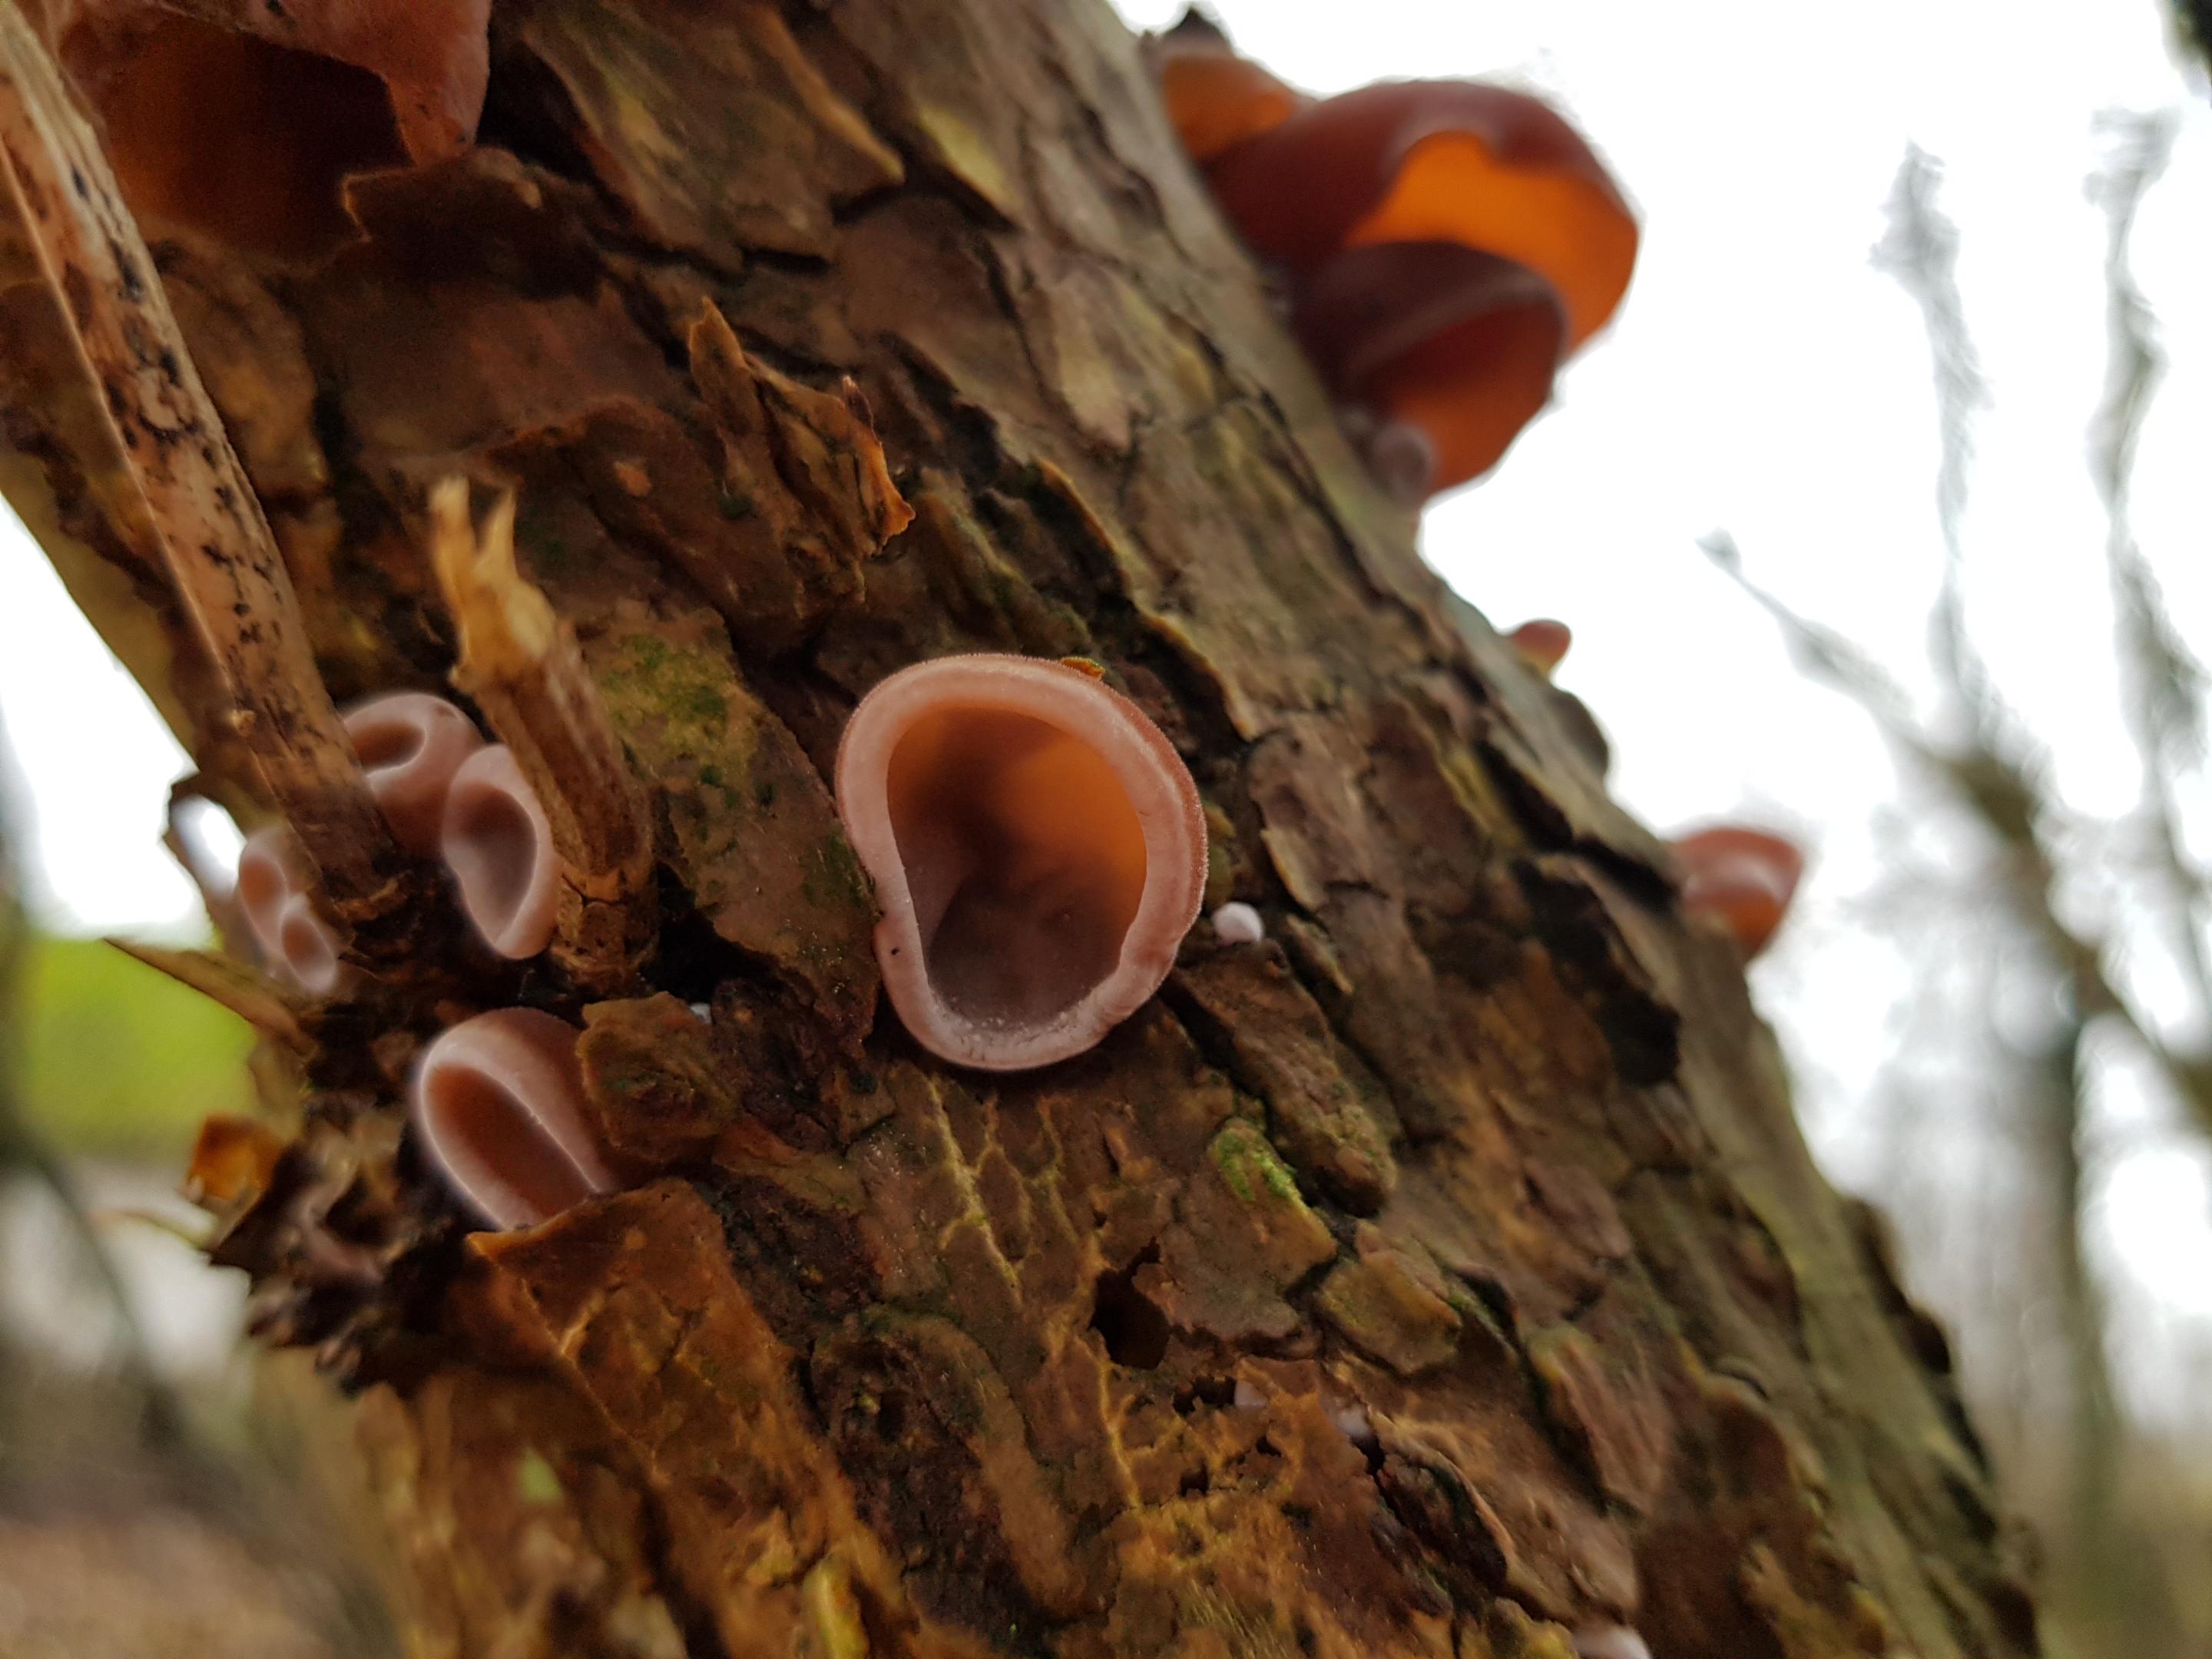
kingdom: Fungi
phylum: Basidiomycota
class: Agaricomycetes
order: Auriculariales
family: Auriculariaceae
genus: Auricularia
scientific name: Auricularia auricula-judae
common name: almindelig judasøre
